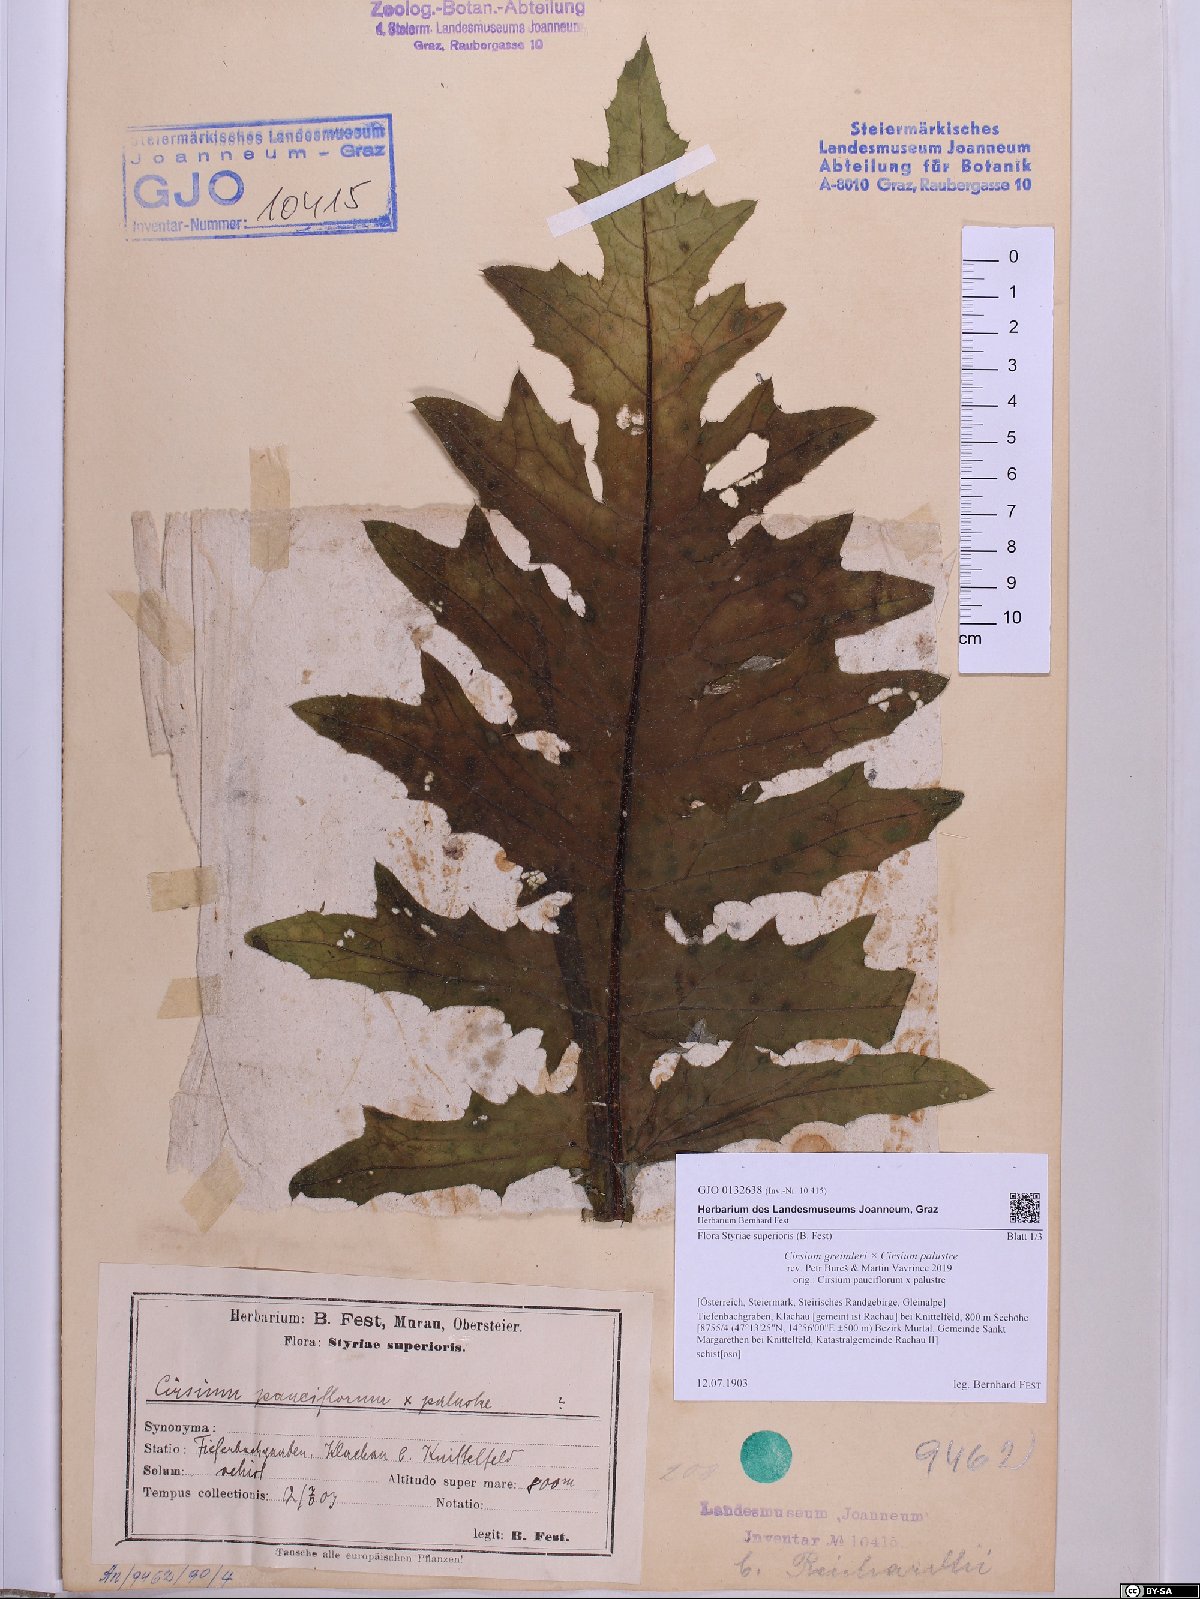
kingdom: Plantae
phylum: Tracheophyta
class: Magnoliopsida
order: Asterales
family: Asteraceae
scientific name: Asteraceae
